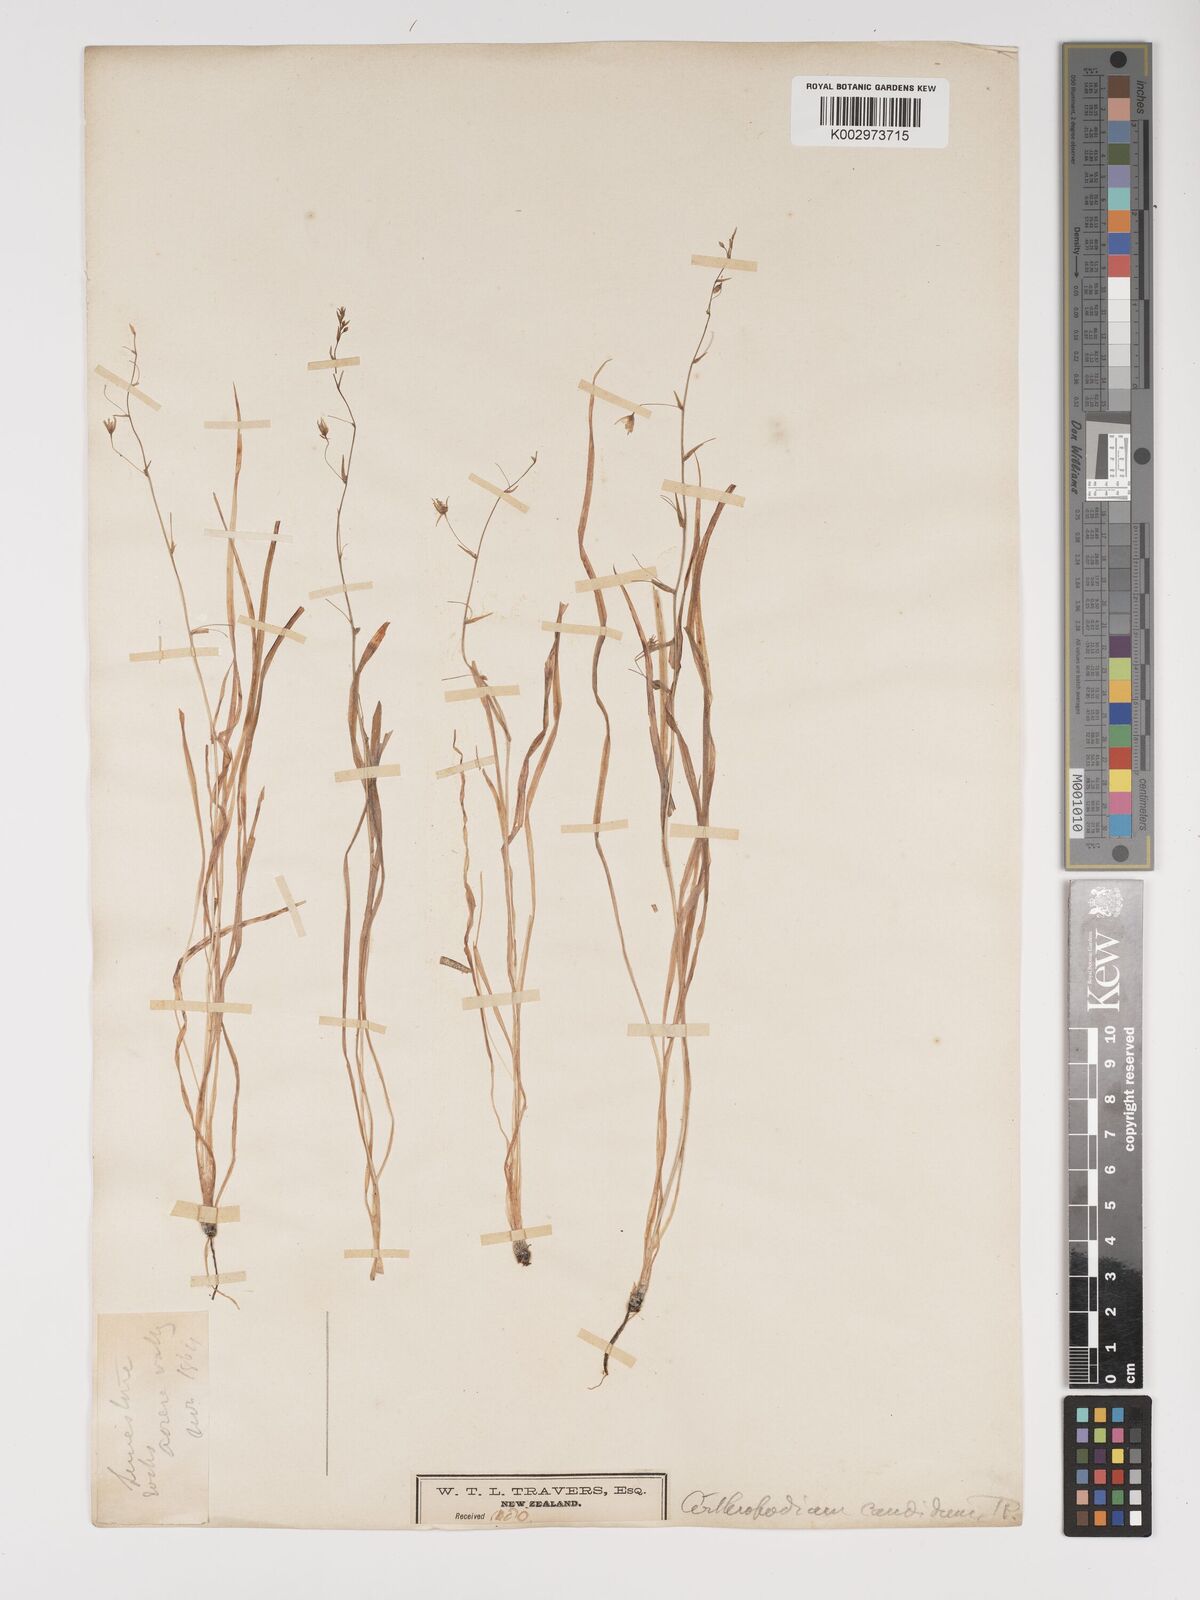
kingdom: Plantae
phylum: Tracheophyta
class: Liliopsida
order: Asparagales
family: Asparagaceae
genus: Arthropodium
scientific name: Arthropodium candidum
